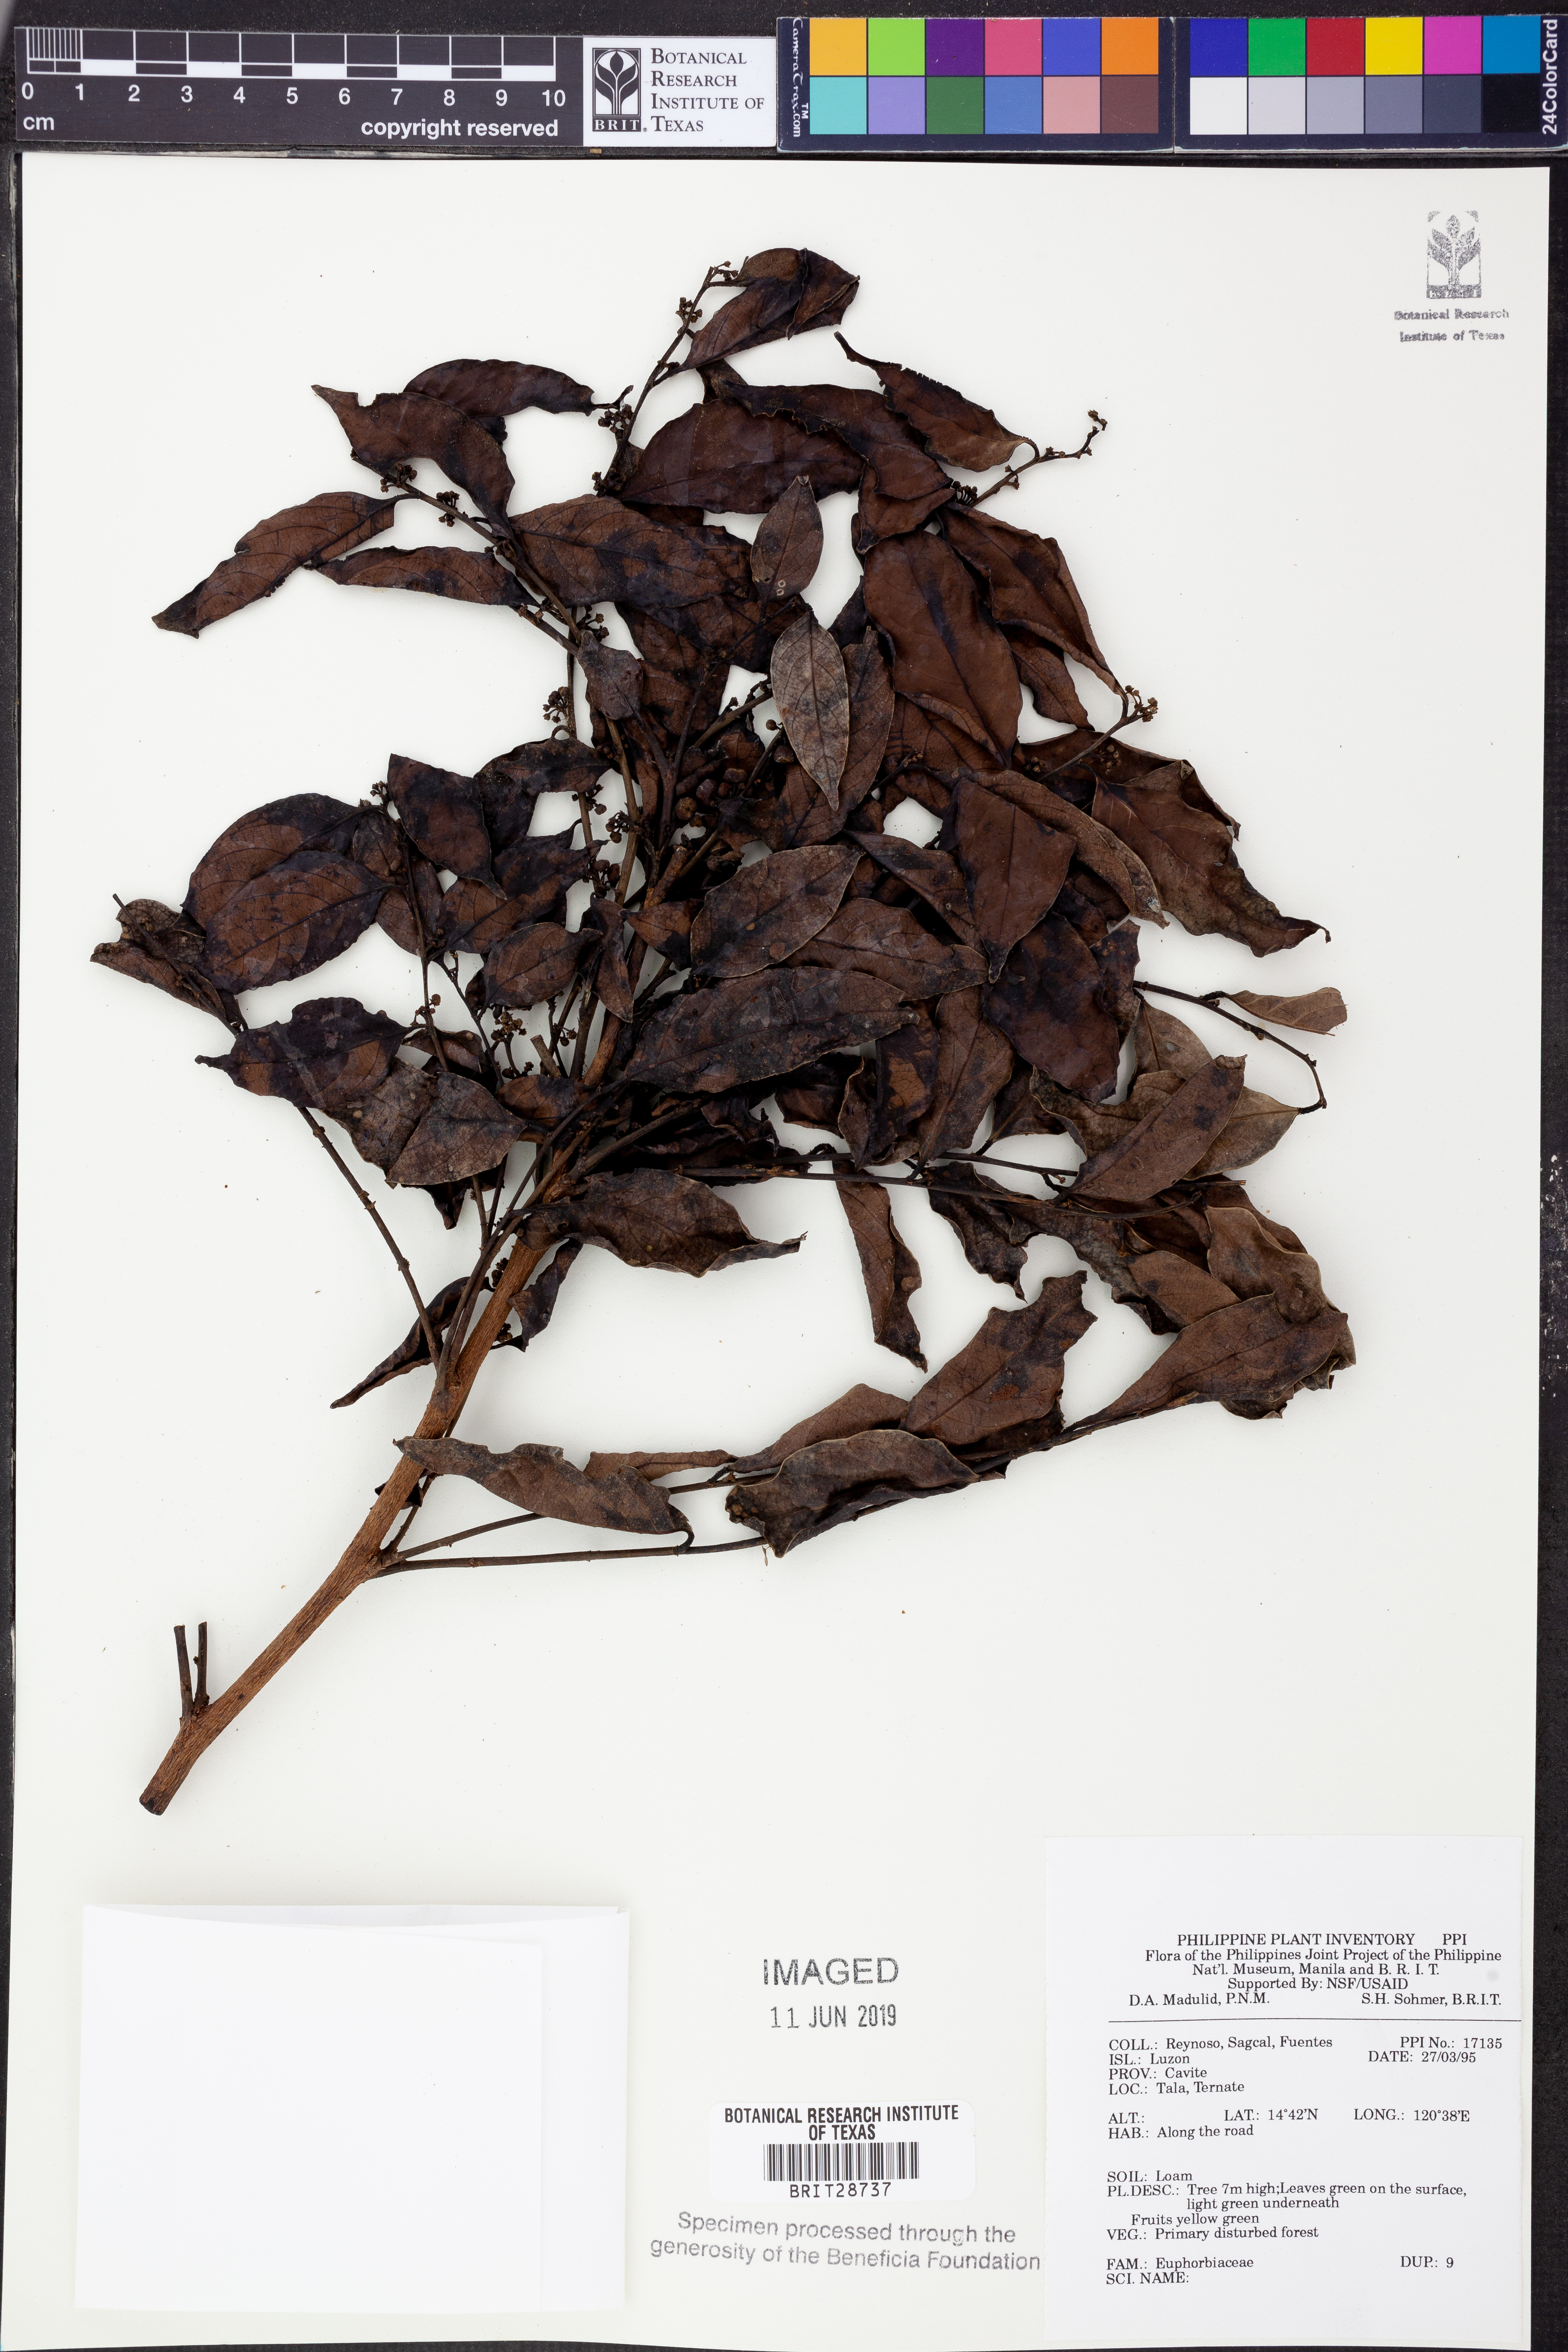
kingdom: Plantae
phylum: Tracheophyta
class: Magnoliopsida
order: Malpighiales
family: Euphorbiaceae
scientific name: Euphorbiaceae
